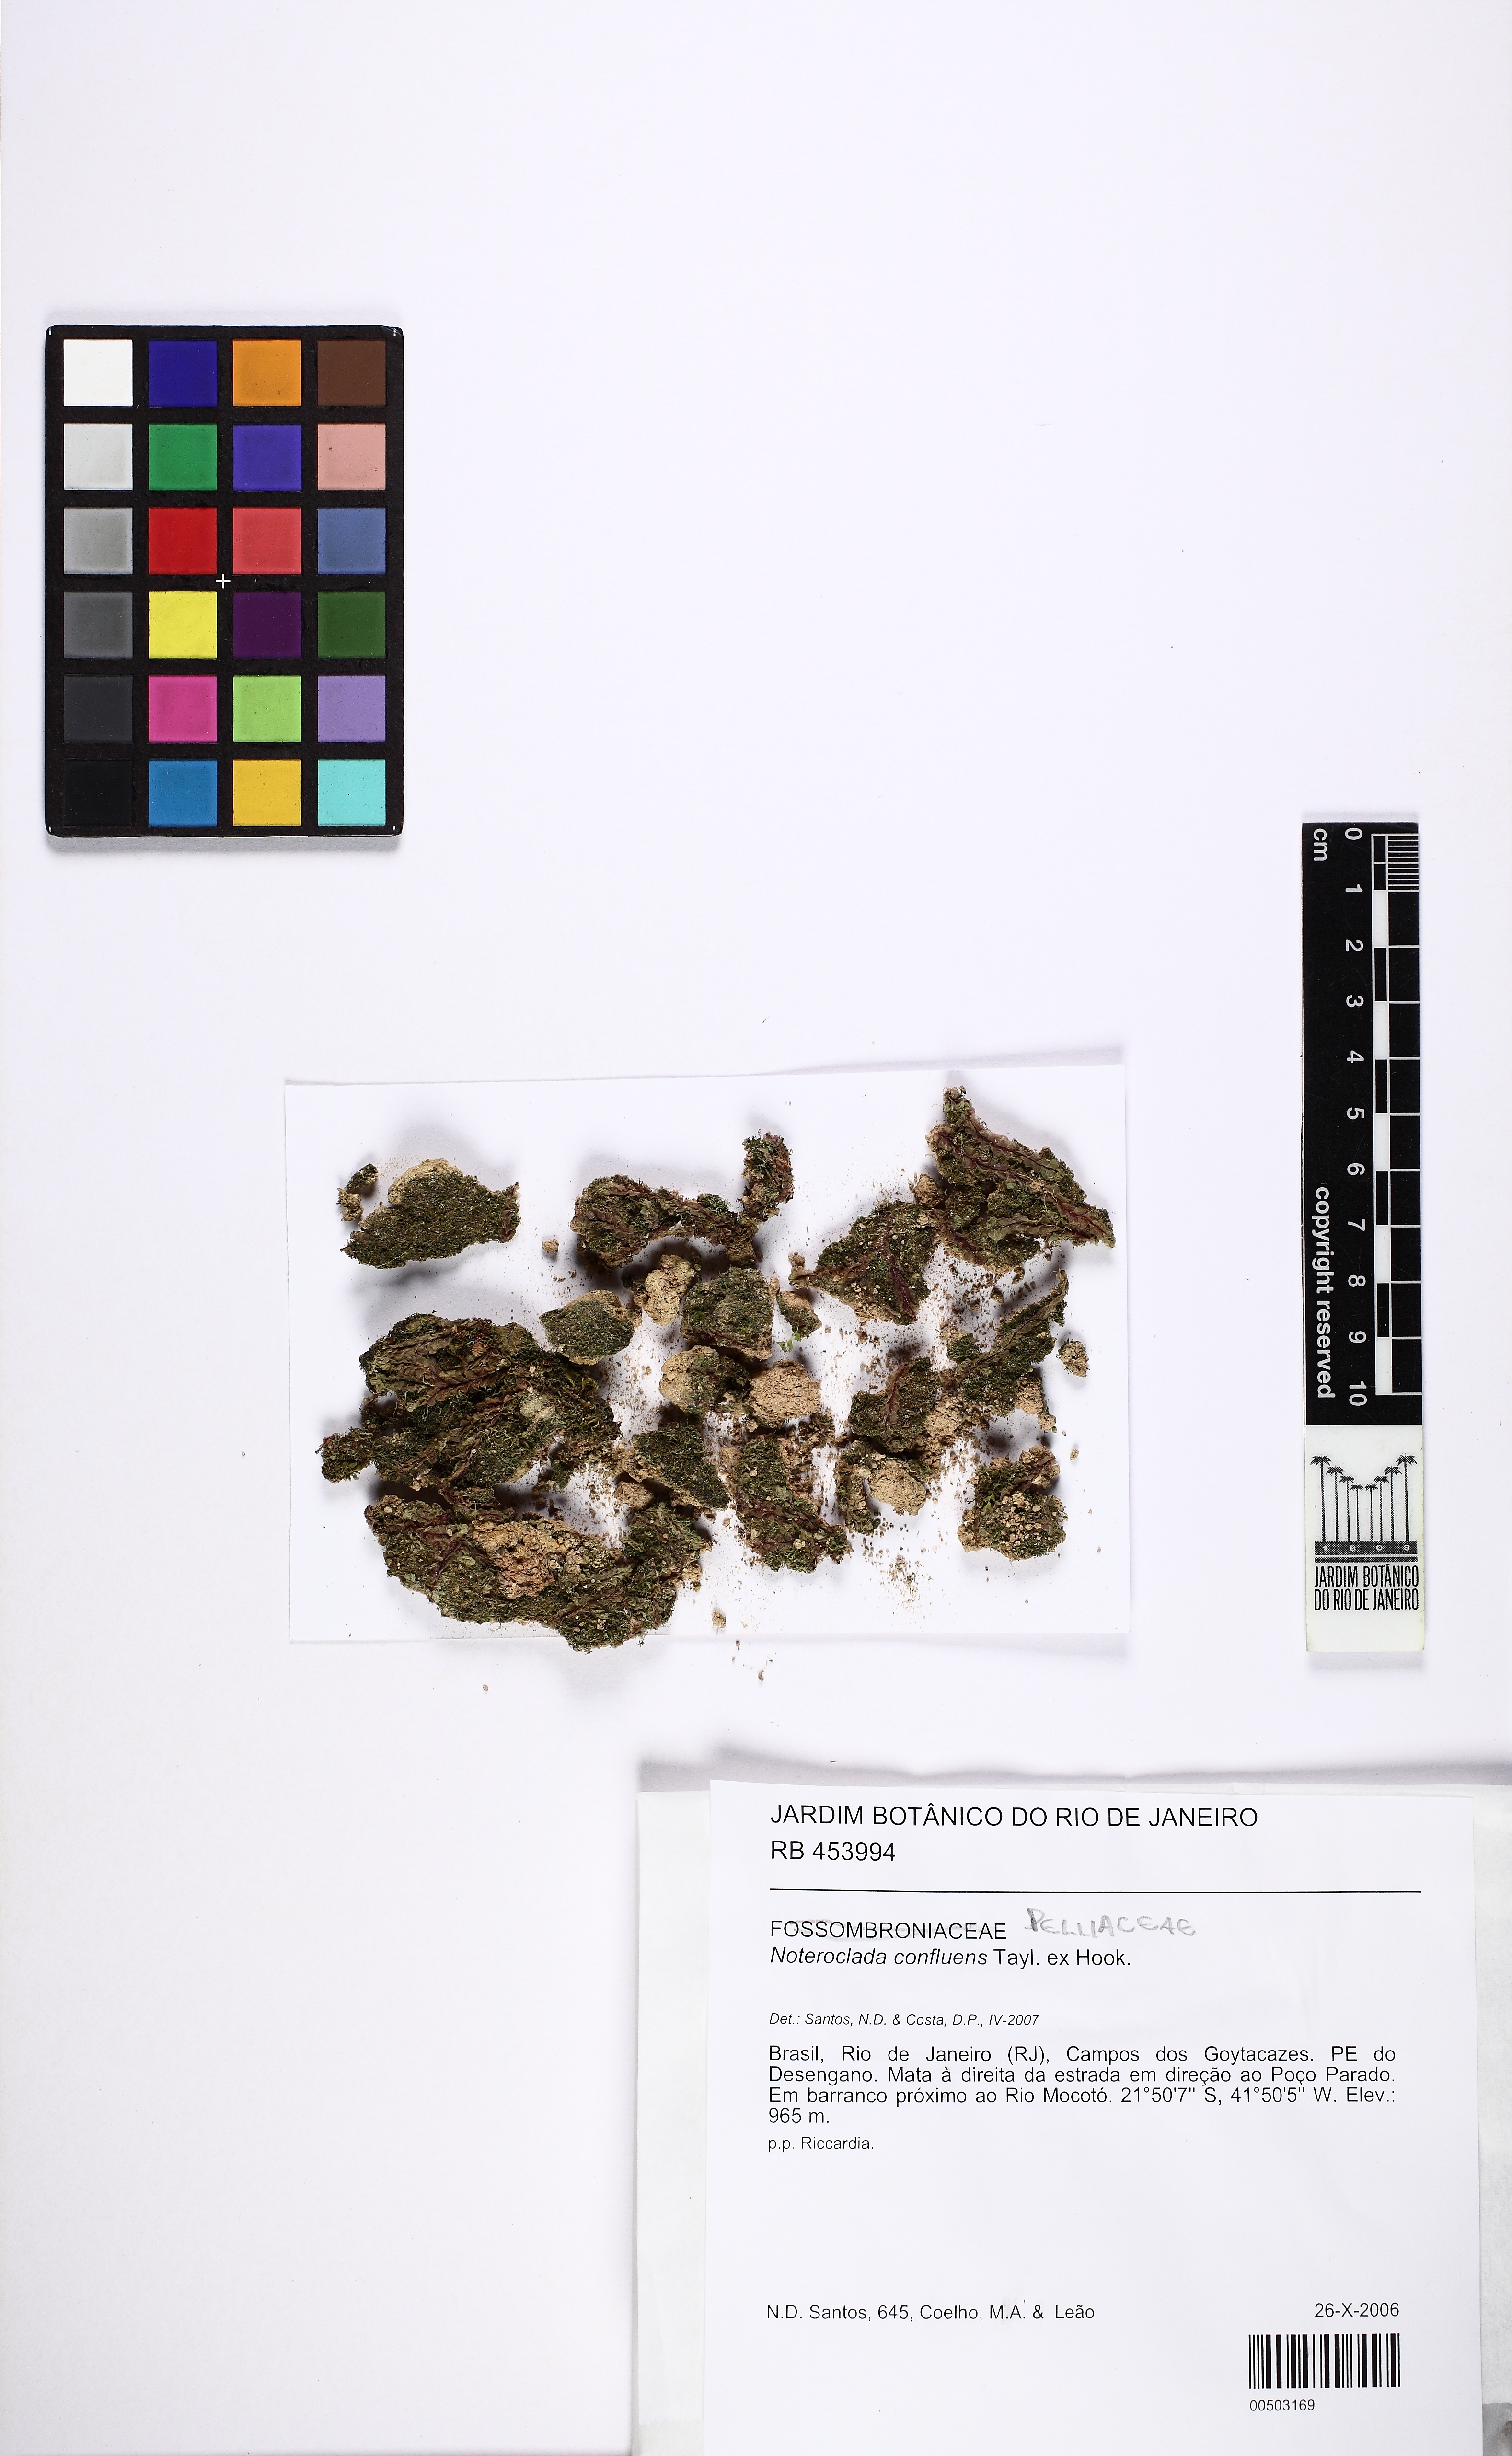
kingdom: Plantae
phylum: Marchantiophyta
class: Jungermanniopsida
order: Pelliales
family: Noterocladaceae
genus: Noteroclada
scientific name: Noteroclada confluens
